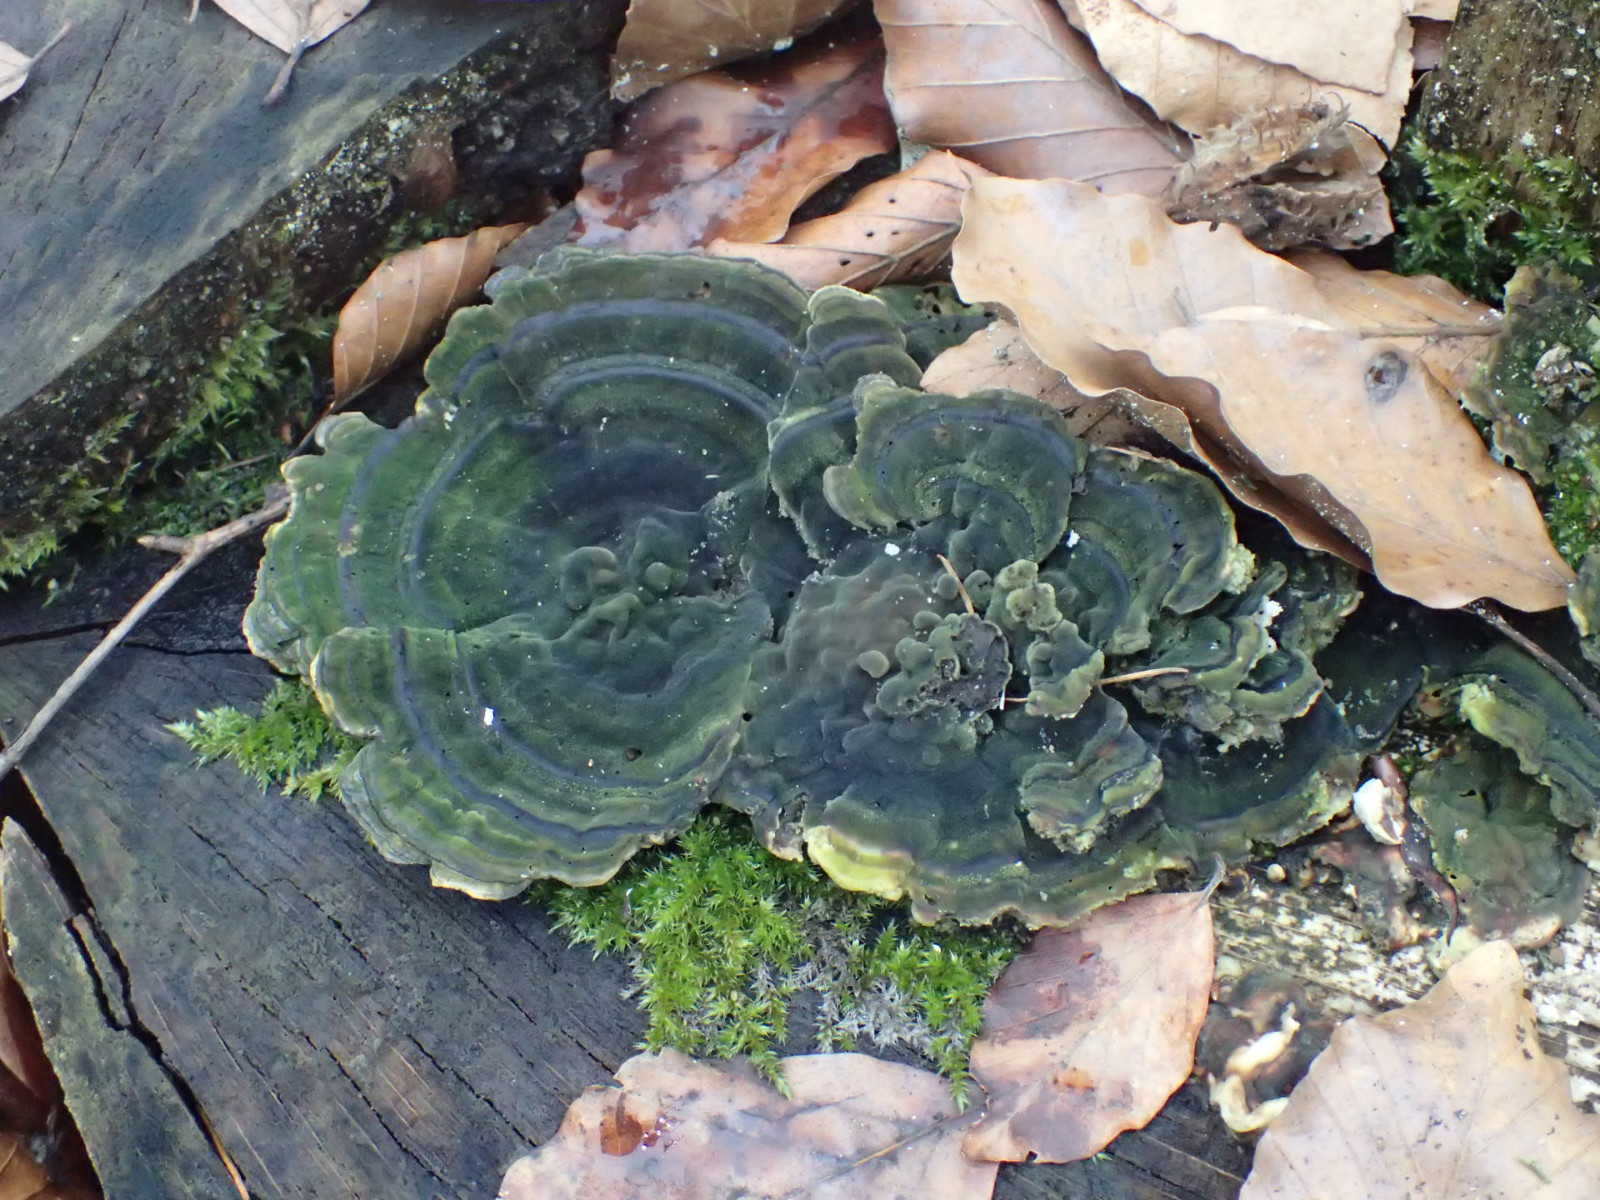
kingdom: Fungi
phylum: Basidiomycota
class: Agaricomycetes
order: Polyporales
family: Polyporaceae
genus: Trametes
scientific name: Trametes versicolor
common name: broget læderporesvamp
